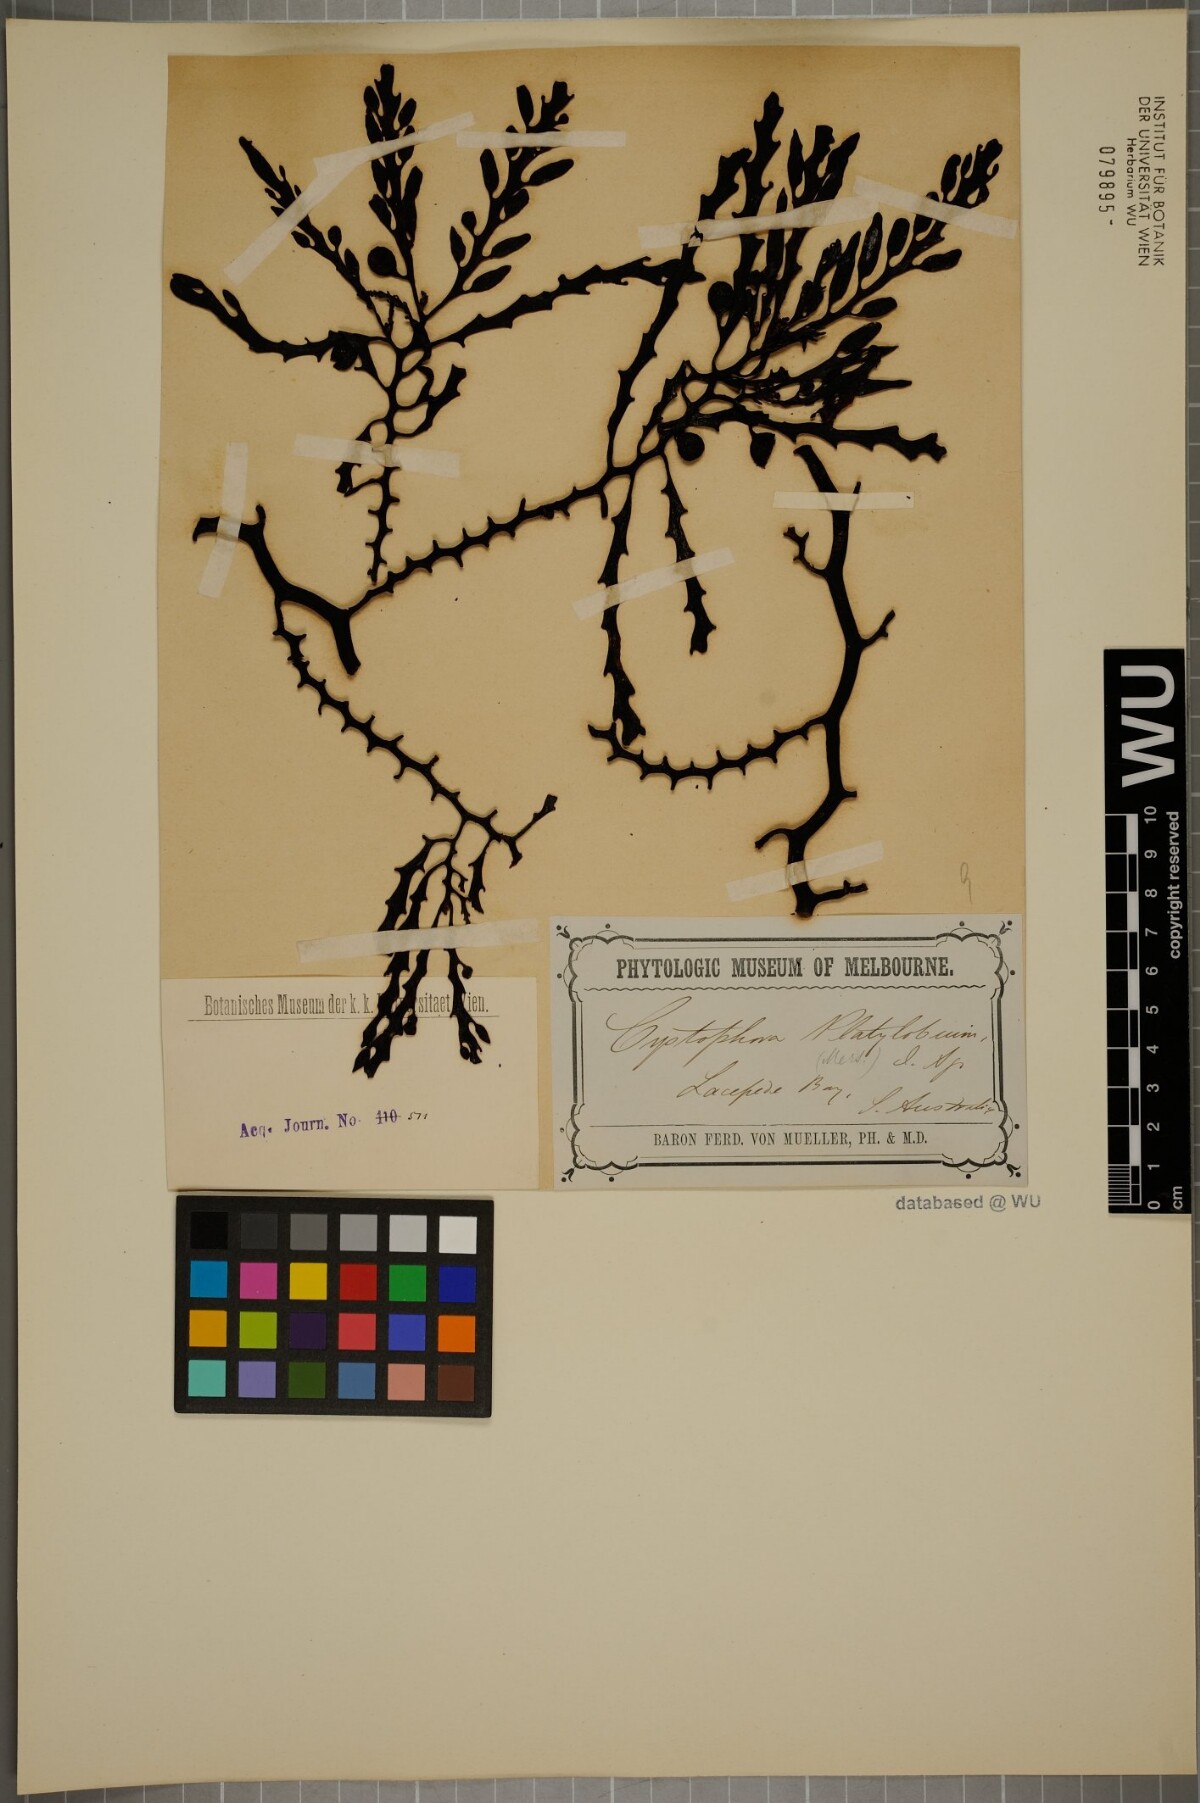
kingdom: Chromista
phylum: Ochrophyta
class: Phaeophyceae
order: Fucales
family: Sargassaceae
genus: Cystophora
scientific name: Cystophora platylobium
